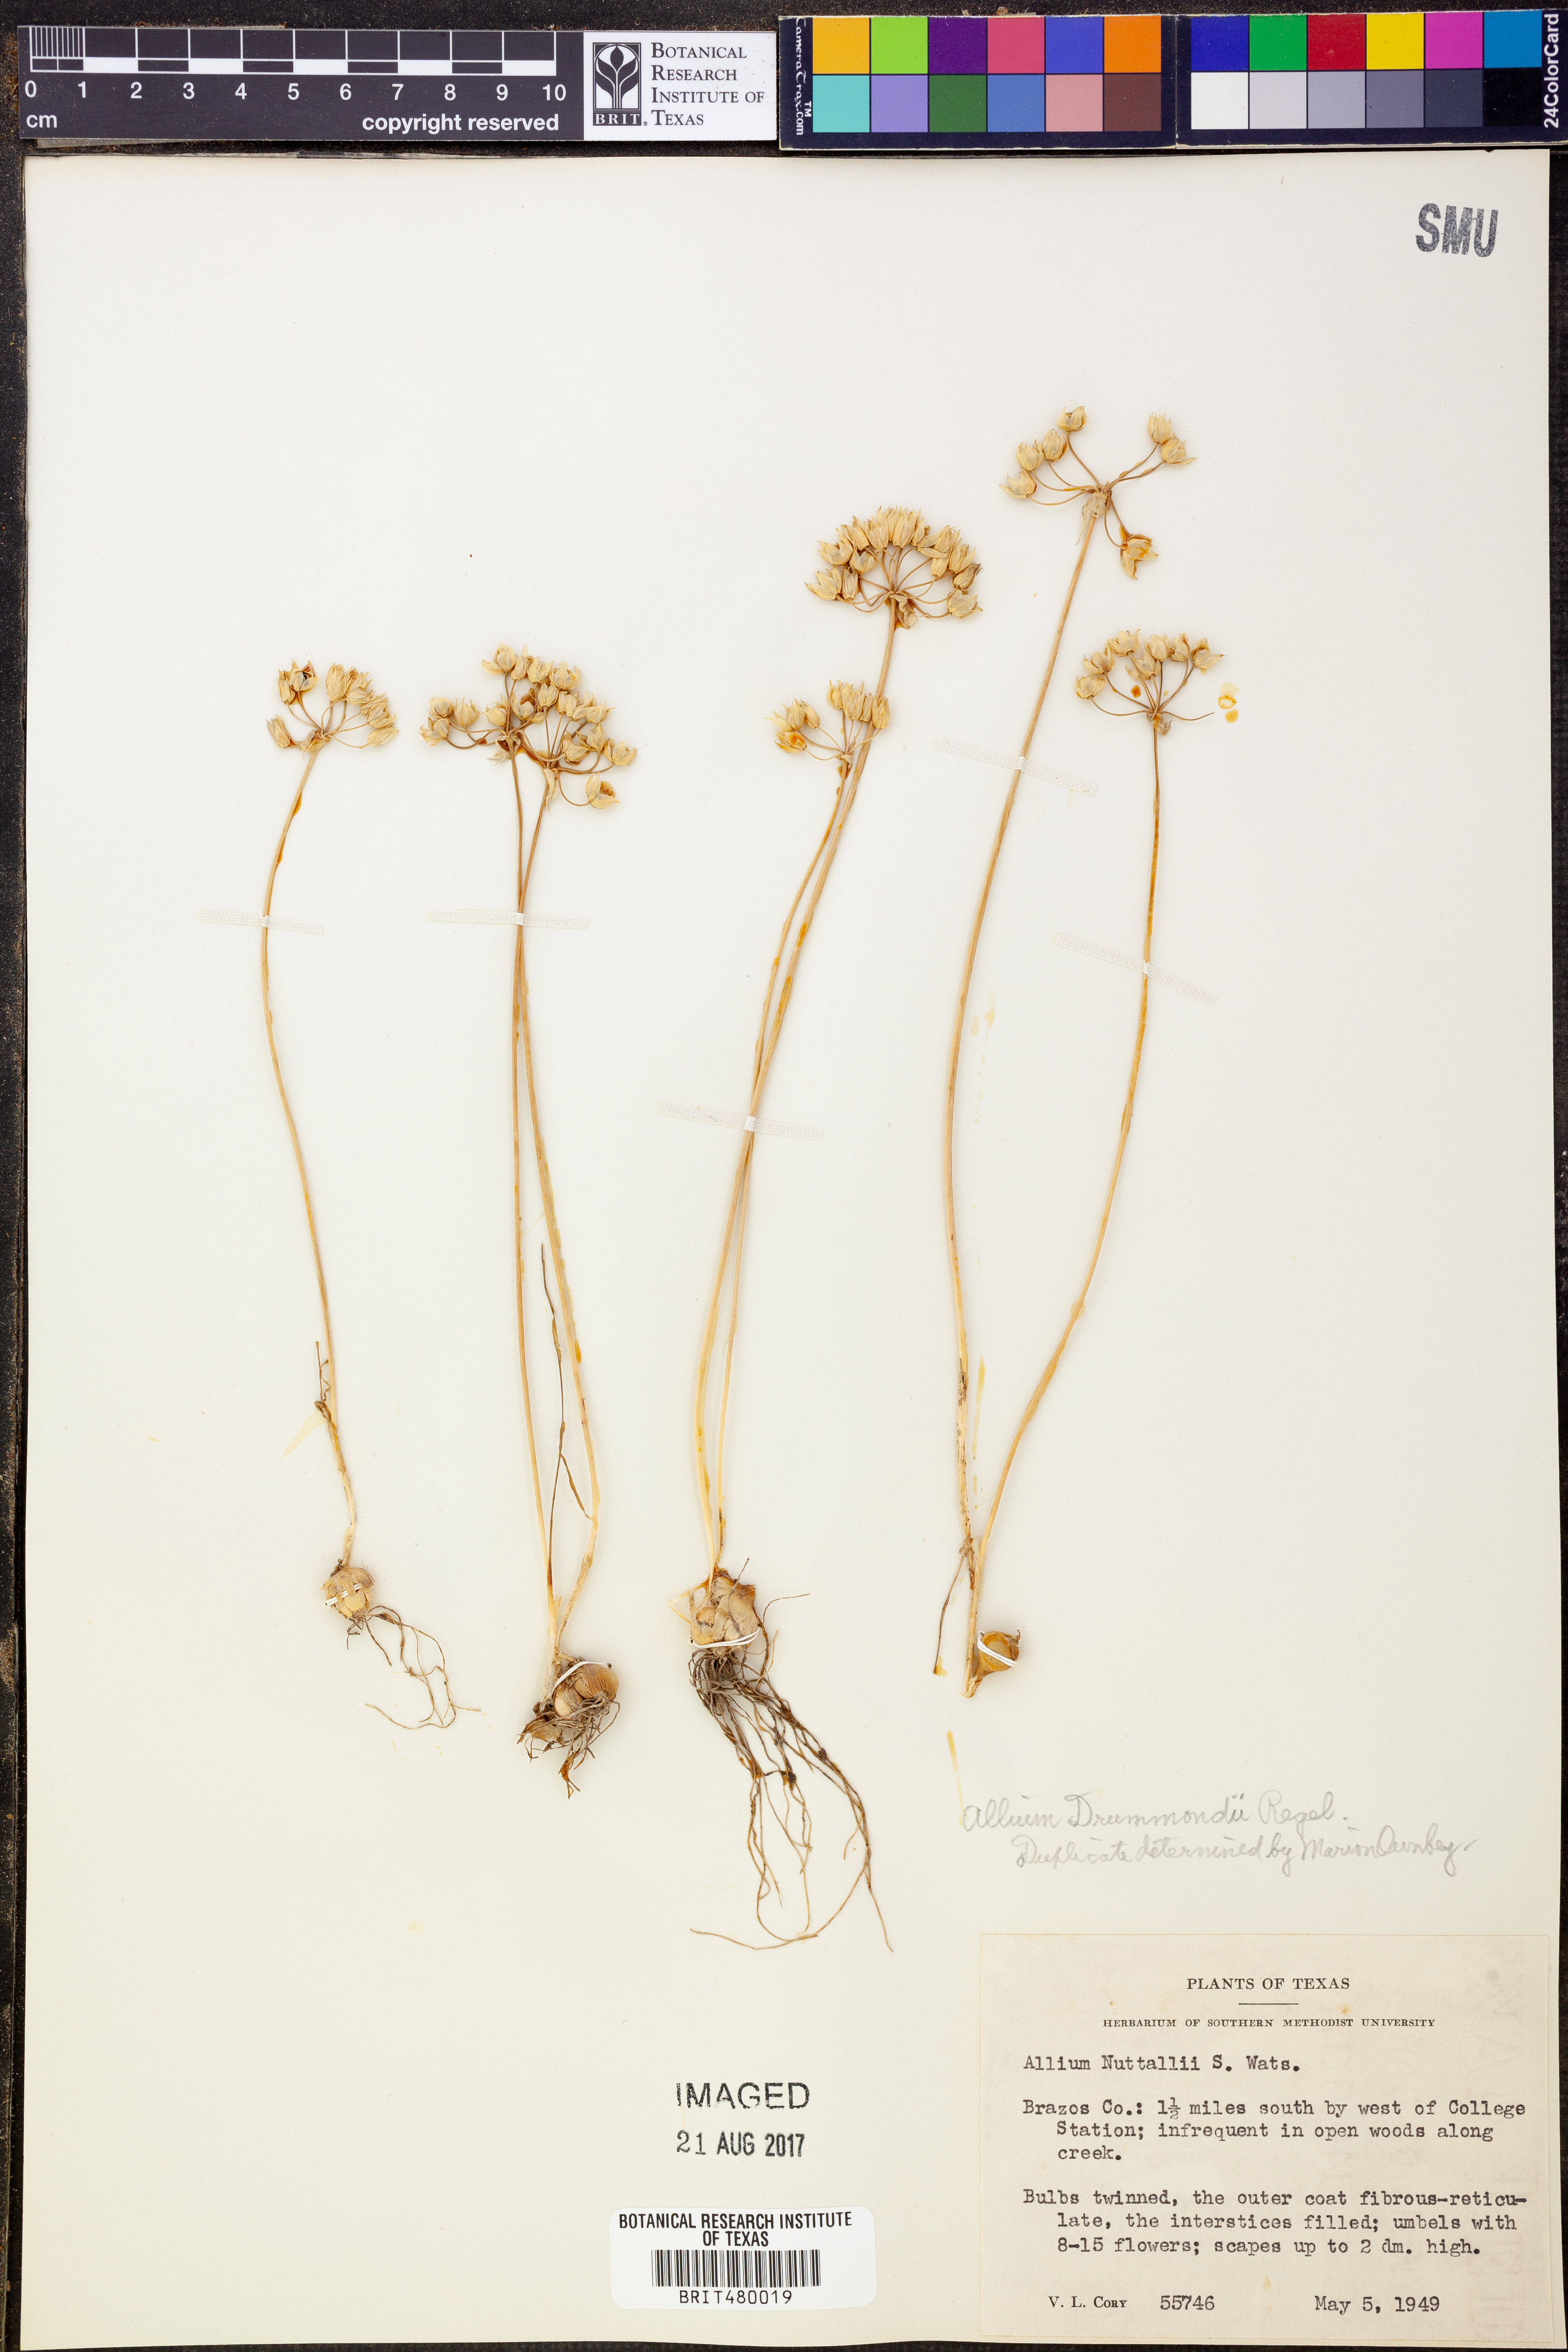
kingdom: Plantae
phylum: Tracheophyta
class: Liliopsida
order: Asparagales
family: Amaryllidaceae
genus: Allium
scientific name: Allium
